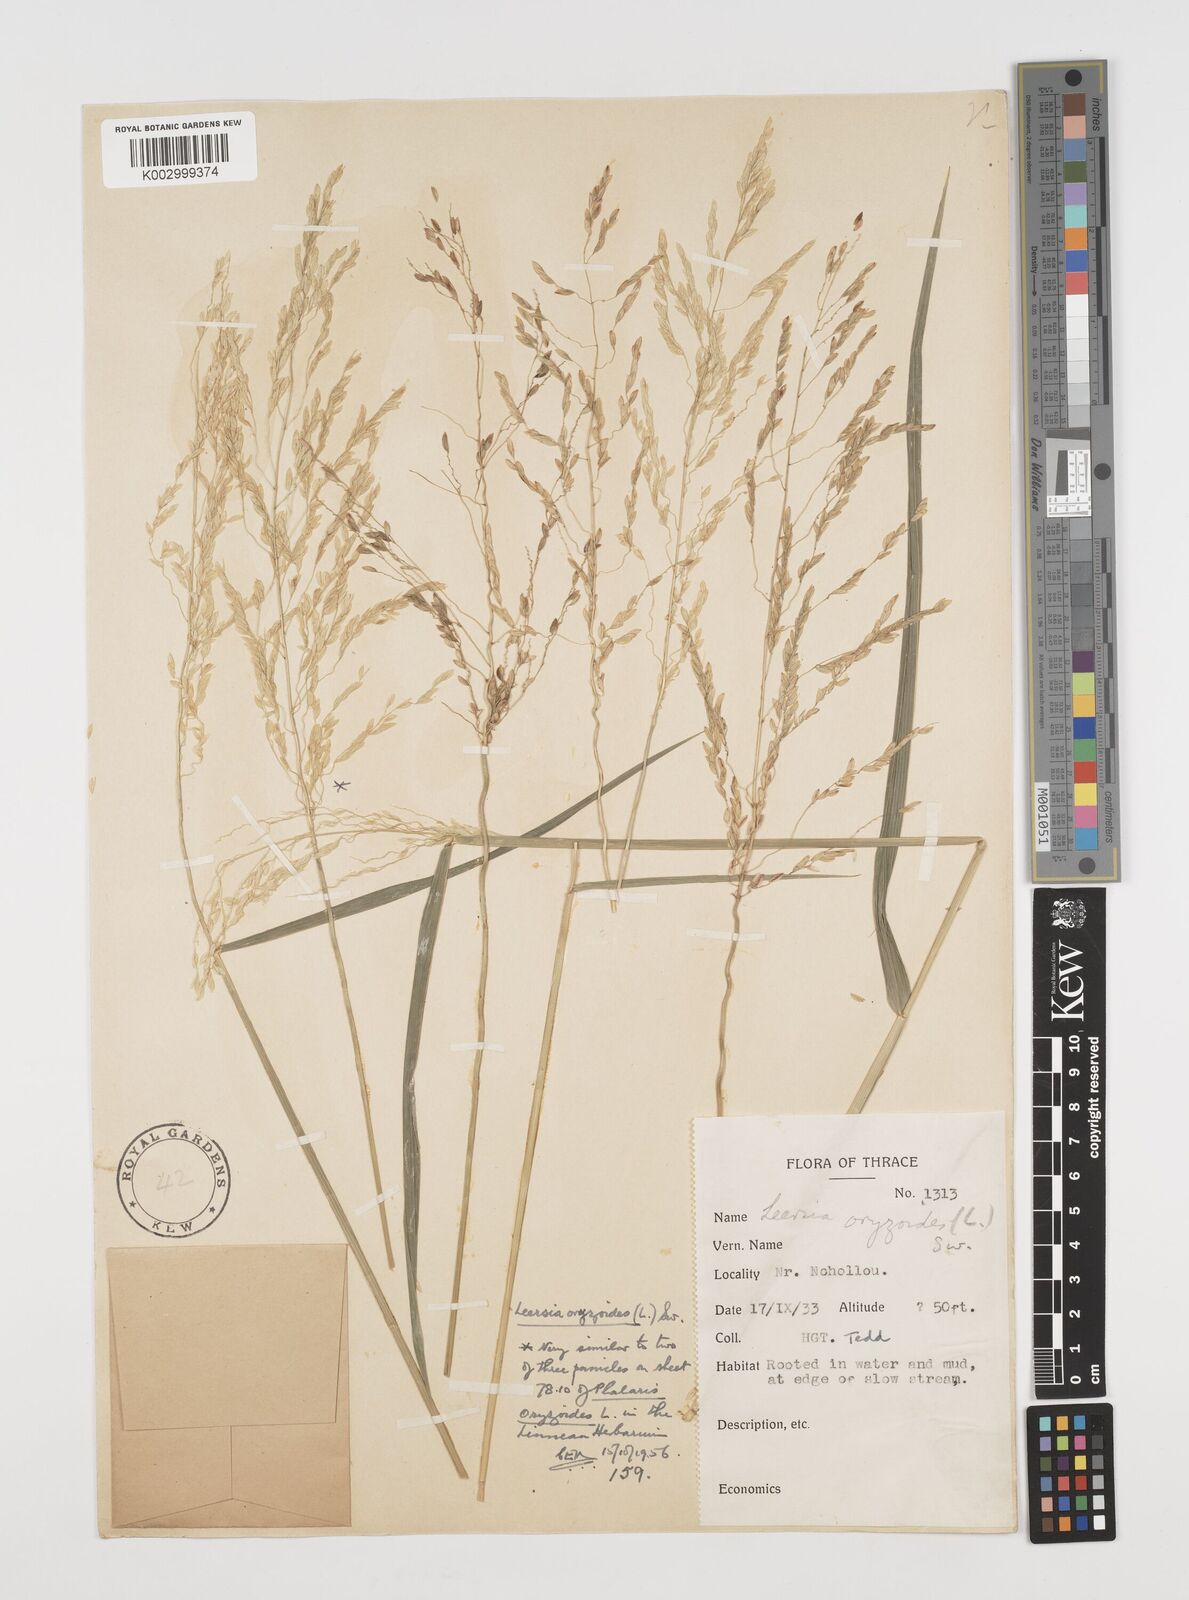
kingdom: Plantae
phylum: Tracheophyta
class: Liliopsida
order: Poales
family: Poaceae
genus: Leersia
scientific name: Leersia oryzoides
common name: Cut-grass
